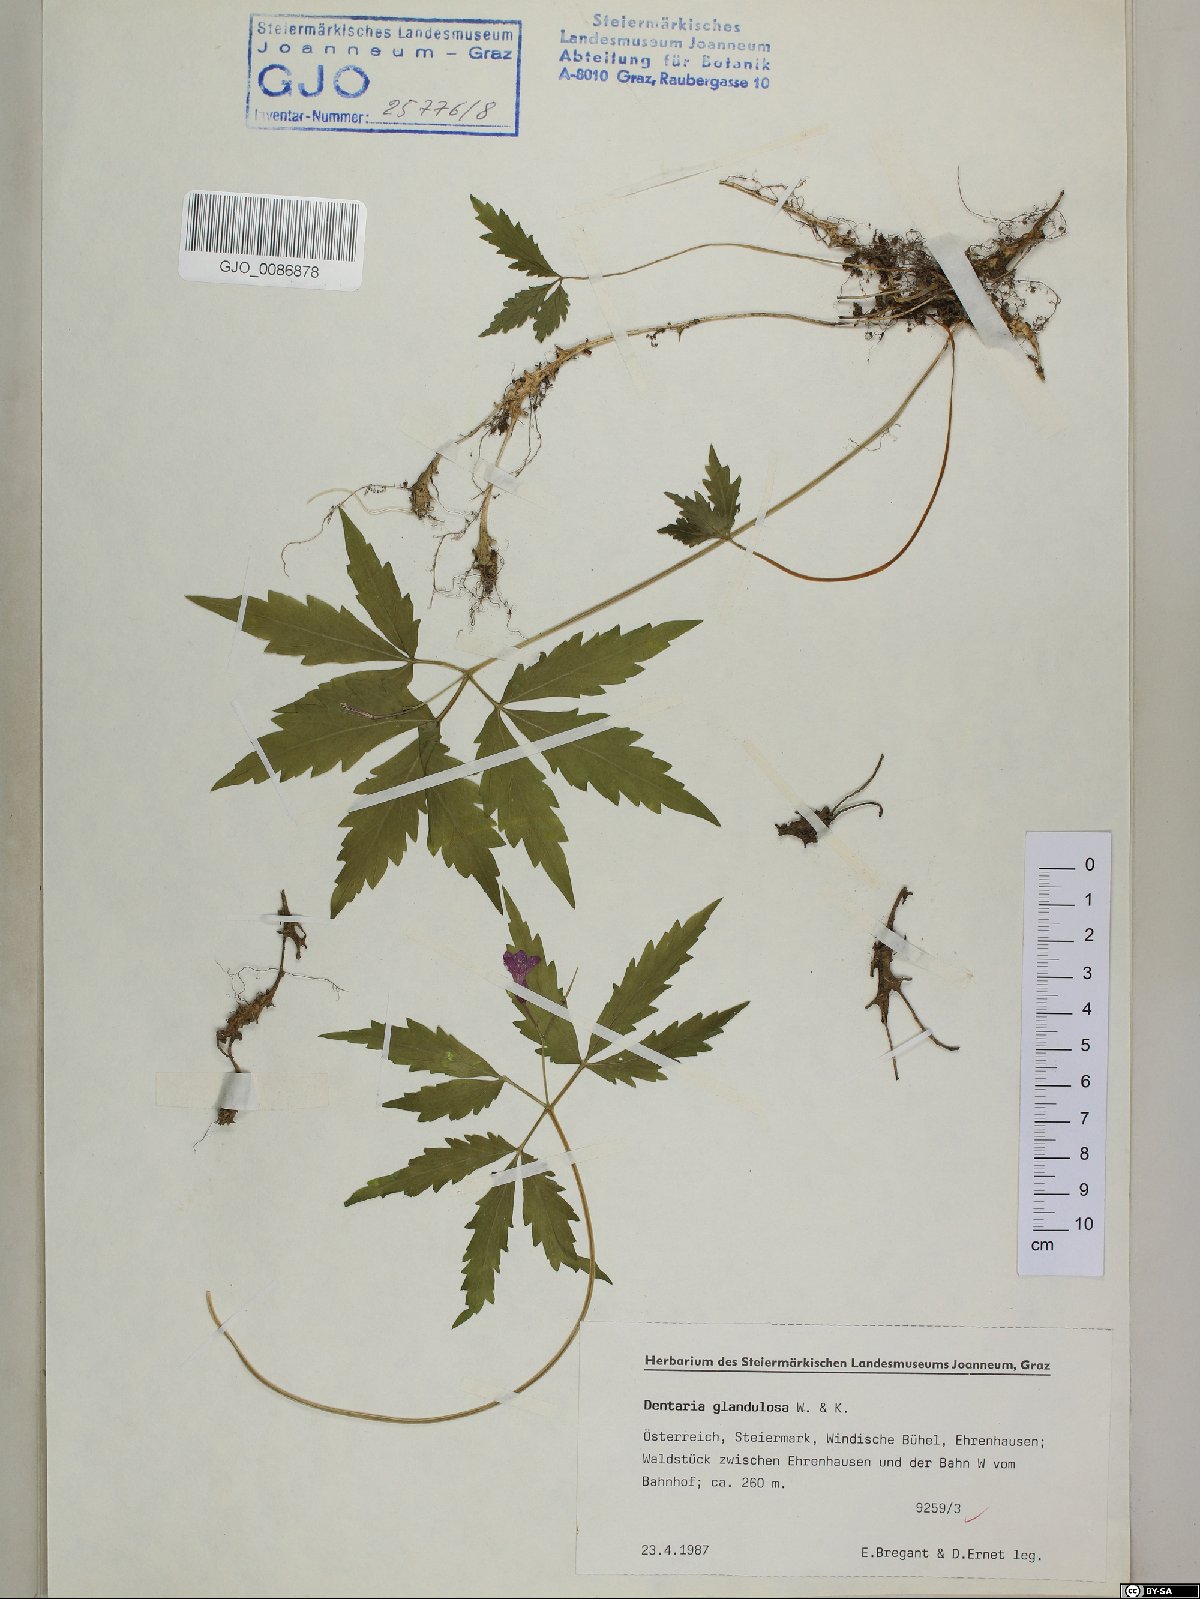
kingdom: Plantae
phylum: Tracheophyta
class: Magnoliopsida
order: Brassicales
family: Brassicaceae
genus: Cardamine
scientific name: Cardamine glanduligera
